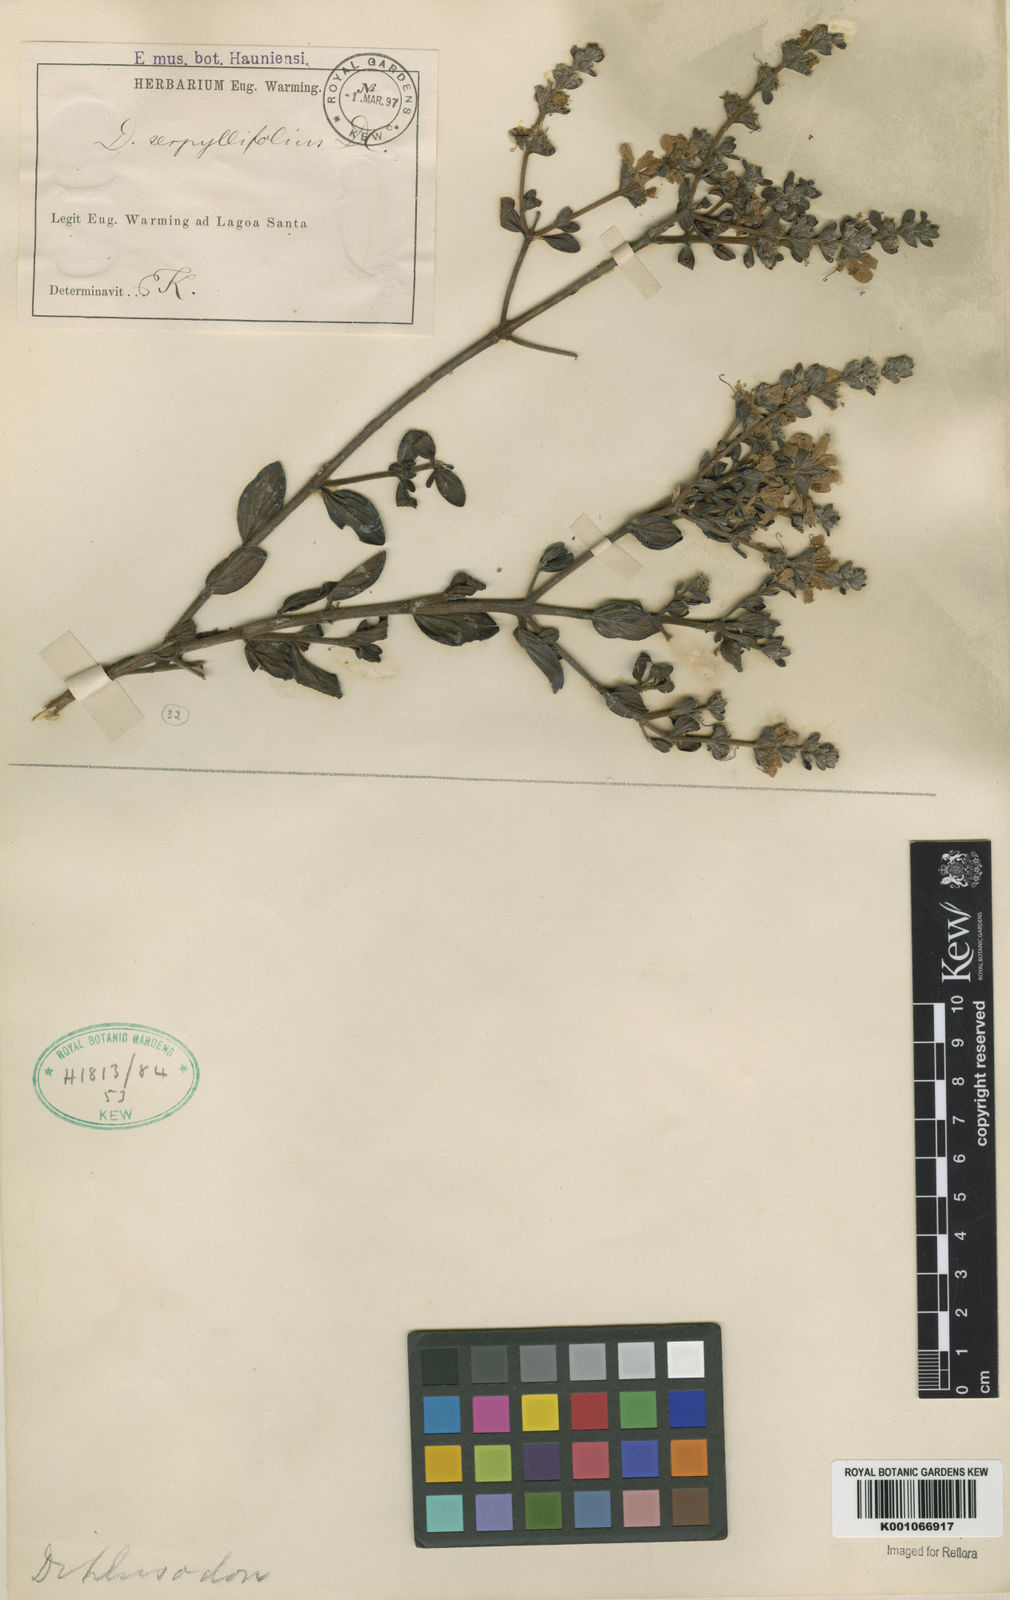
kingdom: Plantae
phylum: Tracheophyta
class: Magnoliopsida
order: Myrtales
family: Lythraceae
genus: Diplusodon
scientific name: Diplusodon hirsutus
